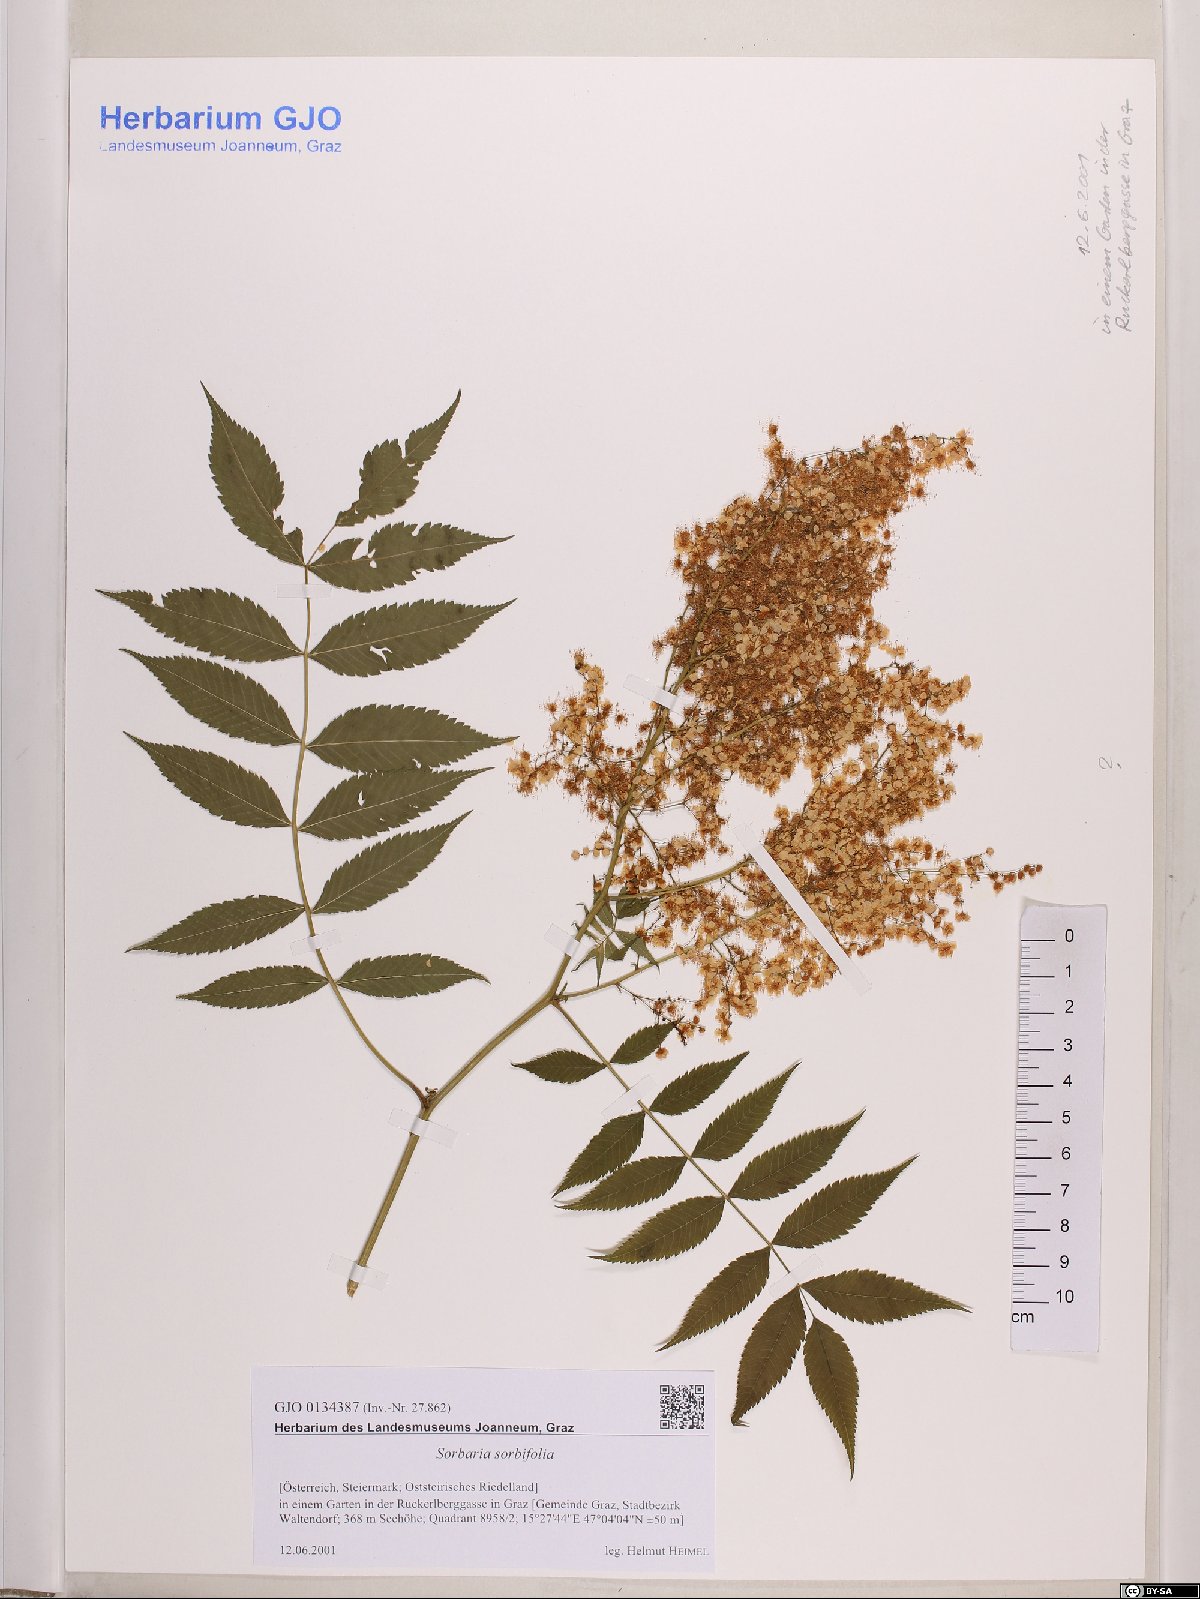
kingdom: Plantae
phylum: Tracheophyta
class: Magnoliopsida
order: Rosales
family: Rosaceae
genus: Sorbaria
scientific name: Sorbaria sorbifolia
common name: False spiraea
